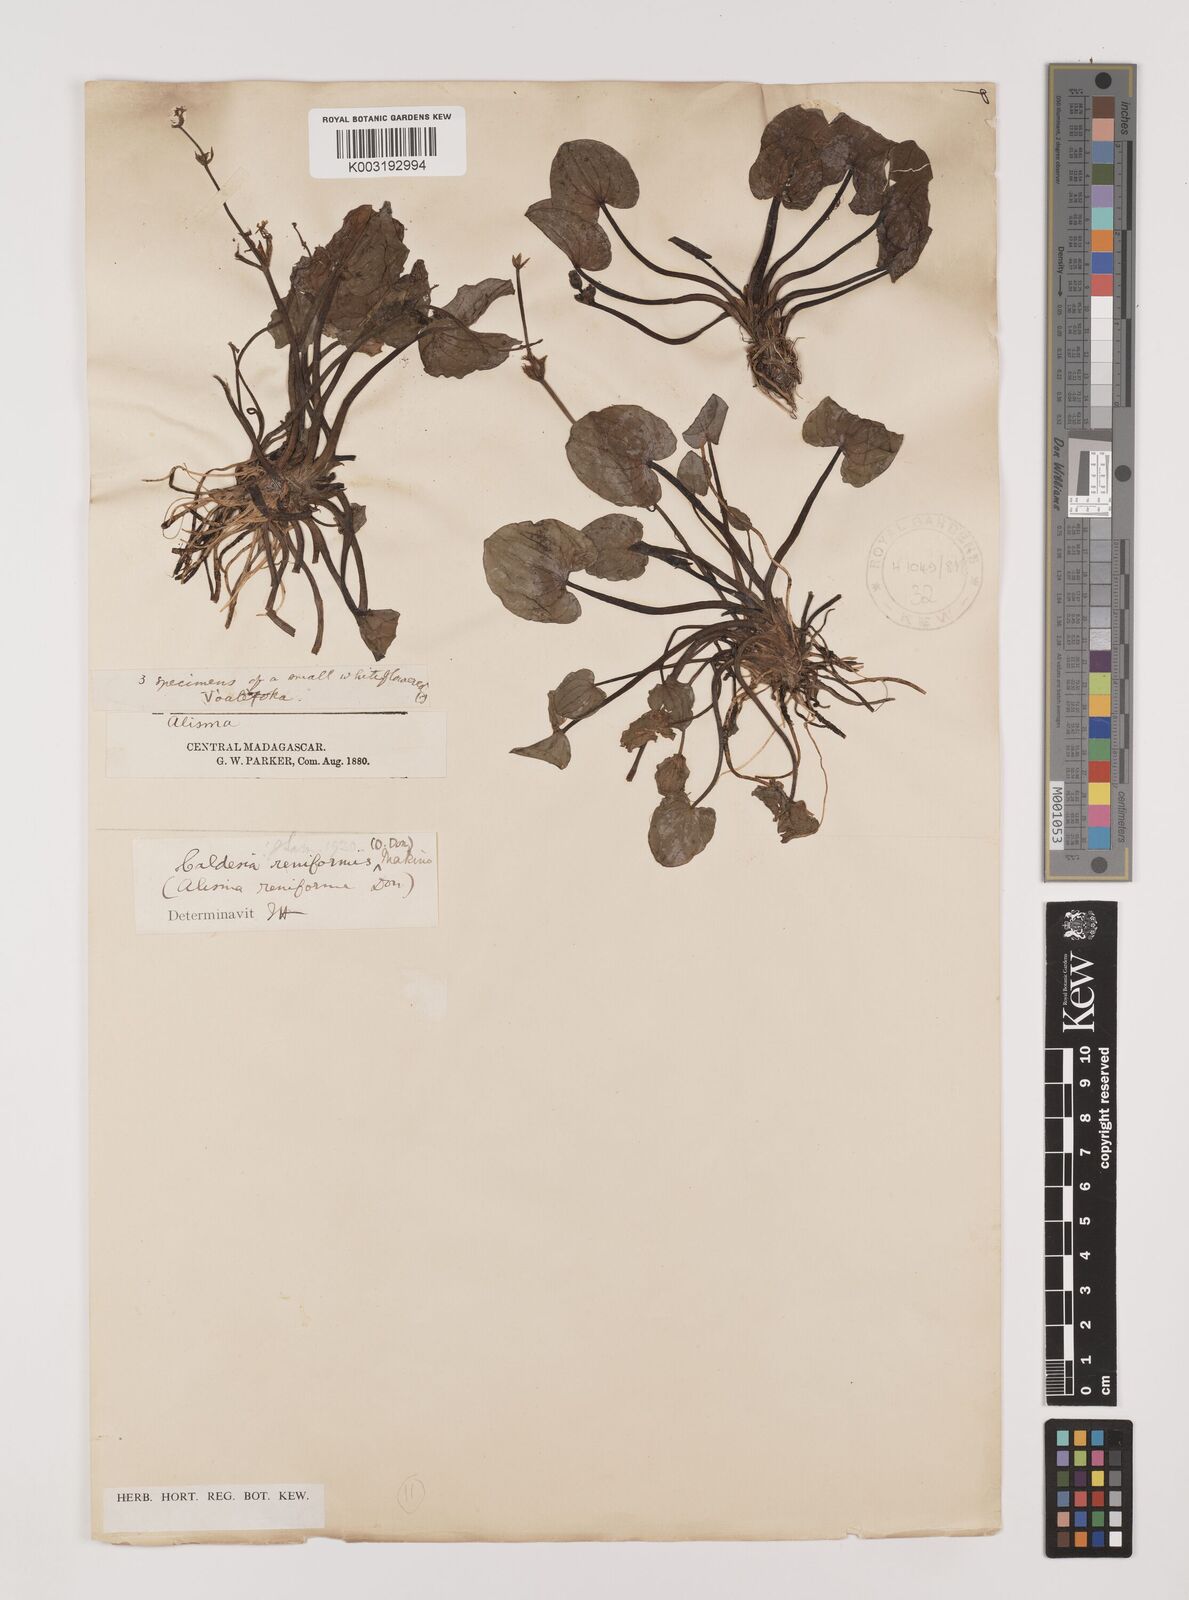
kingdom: Plantae
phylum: Tracheophyta
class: Liliopsida
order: Alismatales
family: Alismataceae
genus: Caldesia
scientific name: Caldesia parnassifolia
